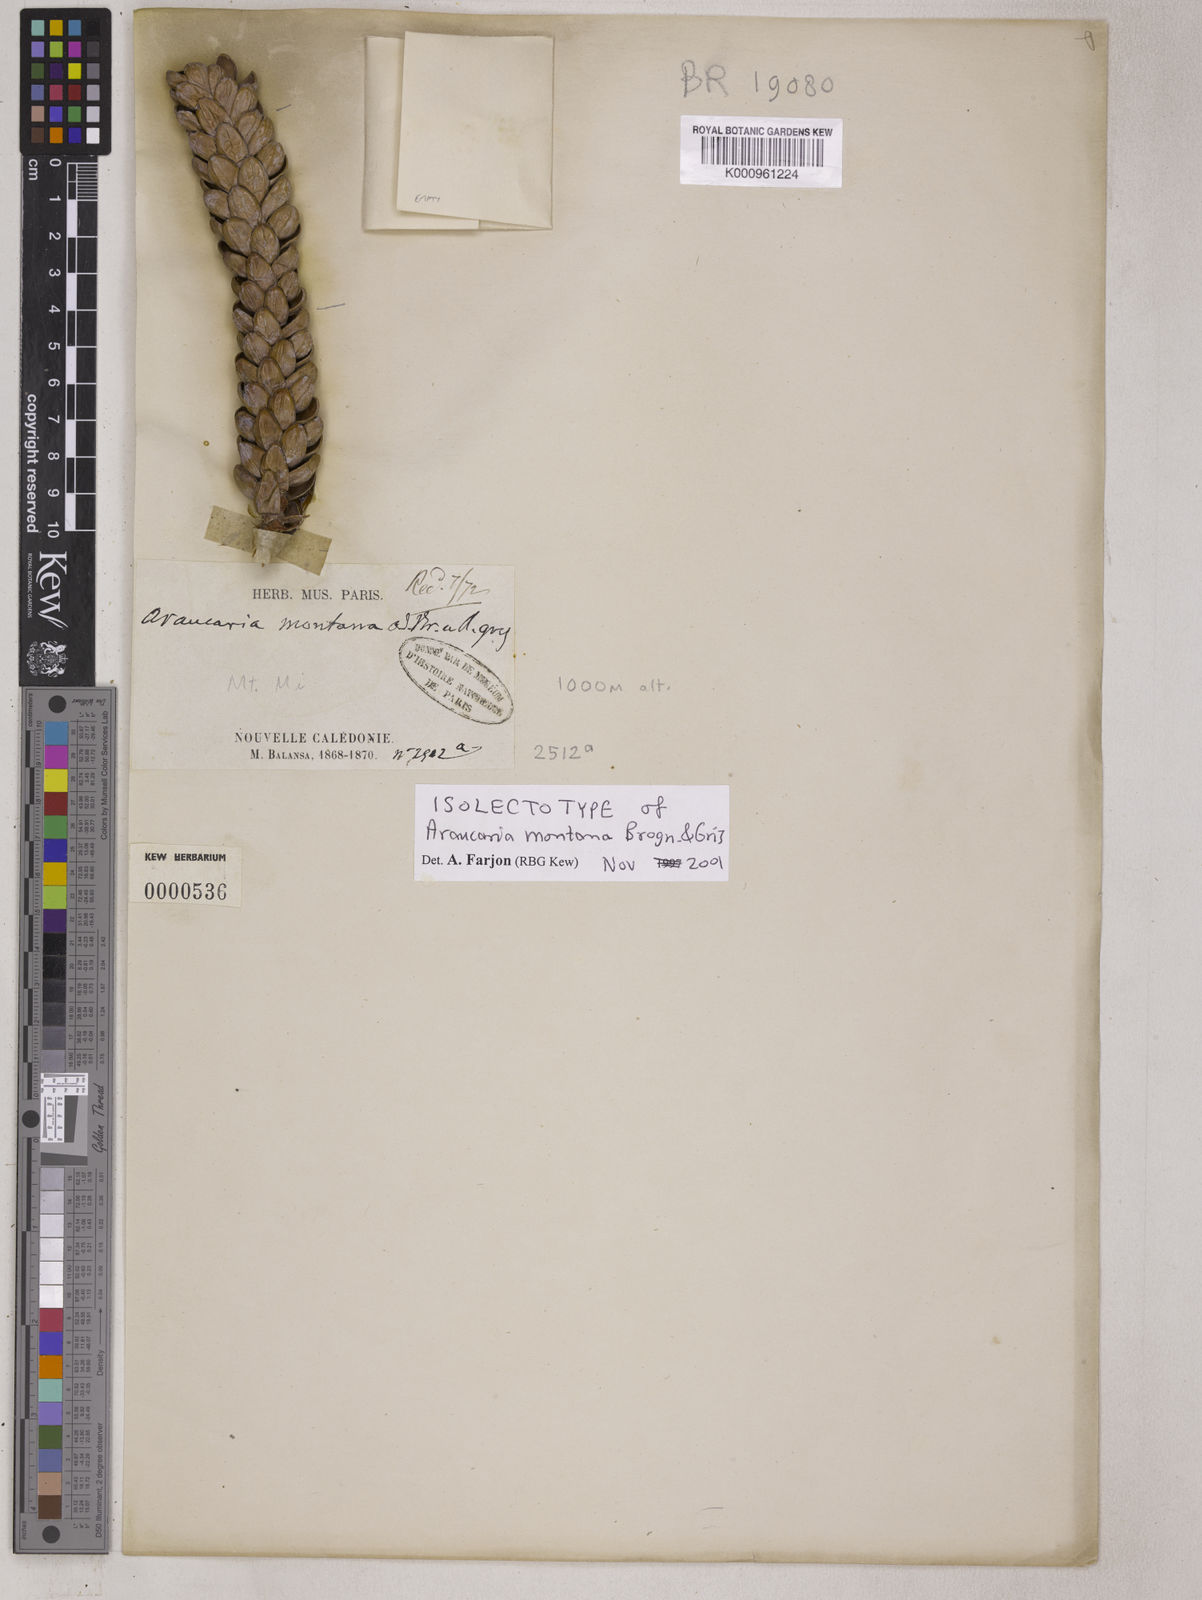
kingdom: Plantae
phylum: Tracheophyta
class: Pinopsida
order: Pinales
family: Araucariaceae
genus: Araucaria
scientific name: Araucaria montana
